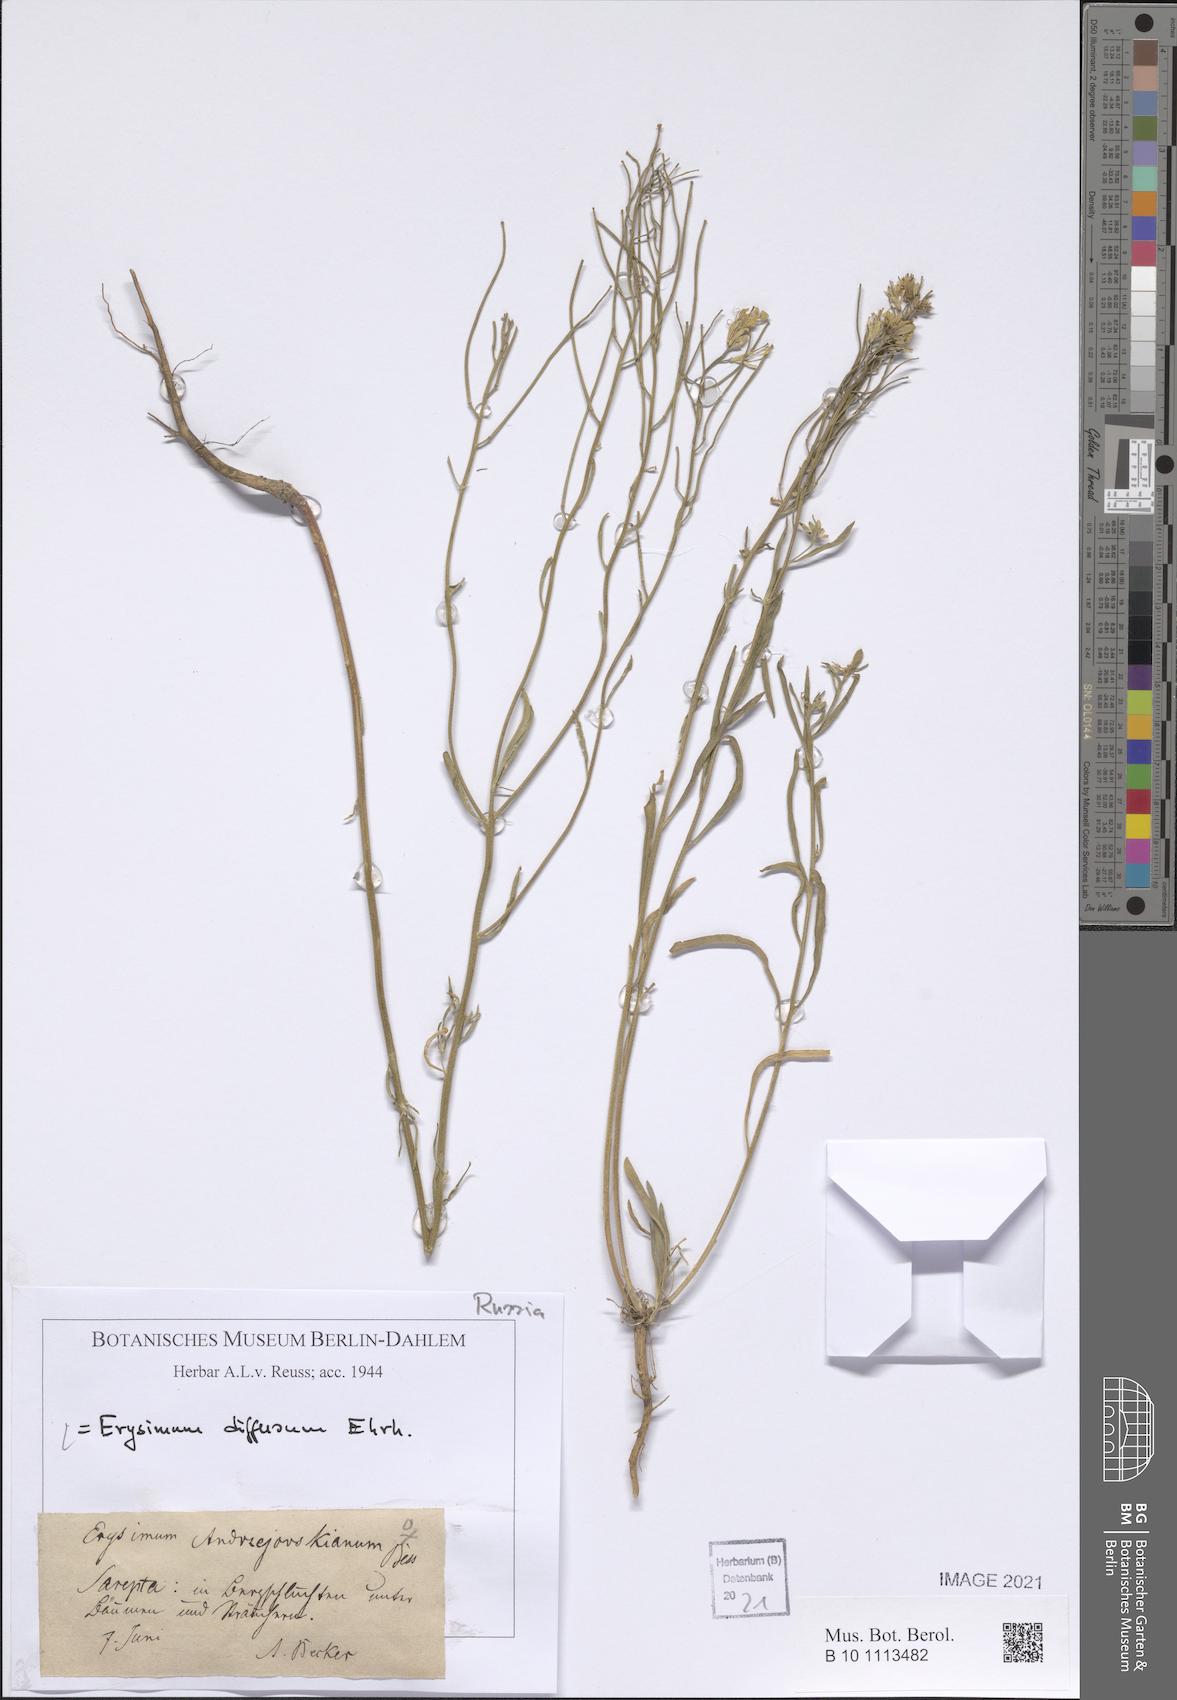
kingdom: Plantae
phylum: Tracheophyta
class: Magnoliopsida
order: Brassicales
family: Brassicaceae
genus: Erysimum
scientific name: Erysimum diffusum
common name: Diffuse wallflower
